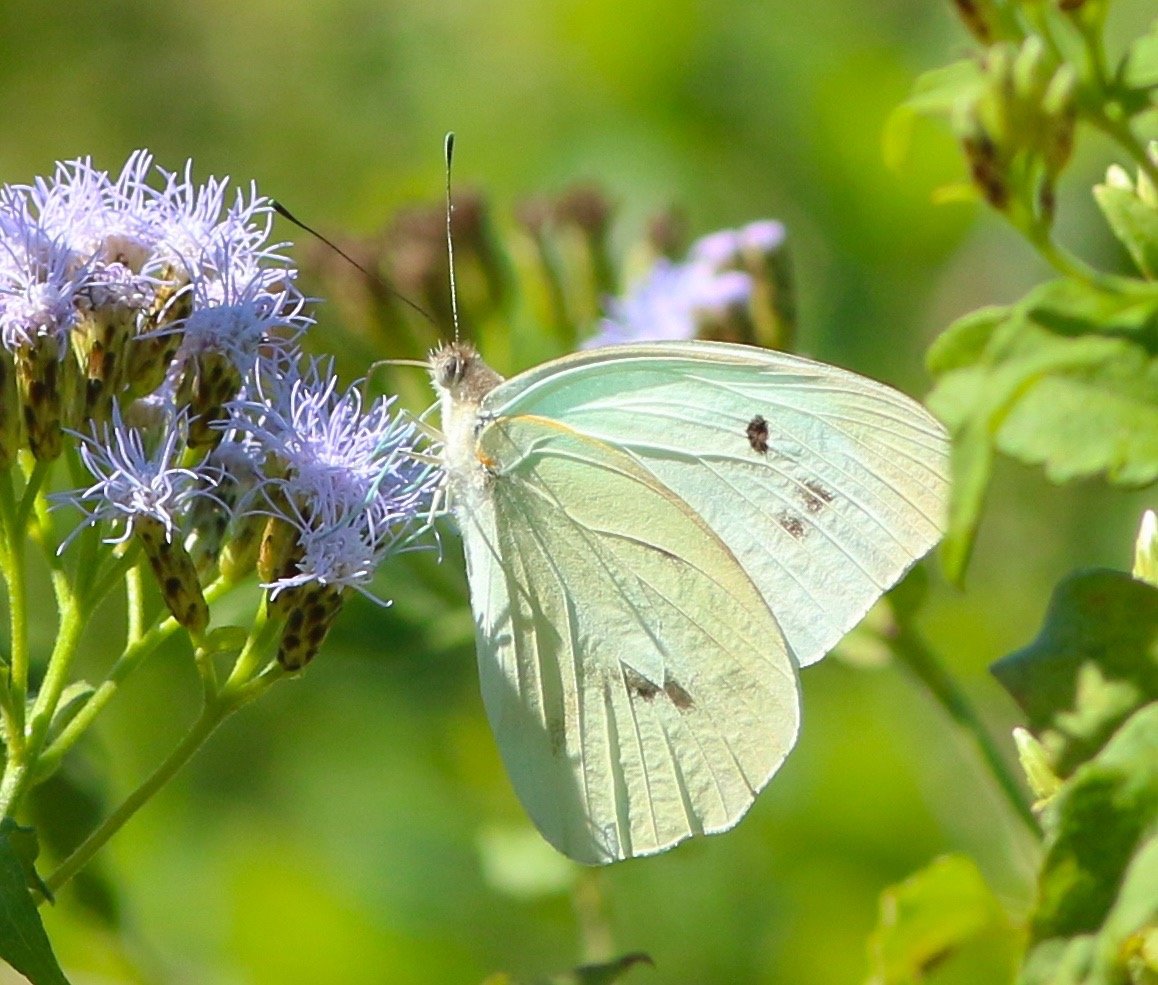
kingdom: Animalia
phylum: Arthropoda
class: Insecta
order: Lepidoptera
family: Pieridae
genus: Ganyra
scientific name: Ganyra josephina
